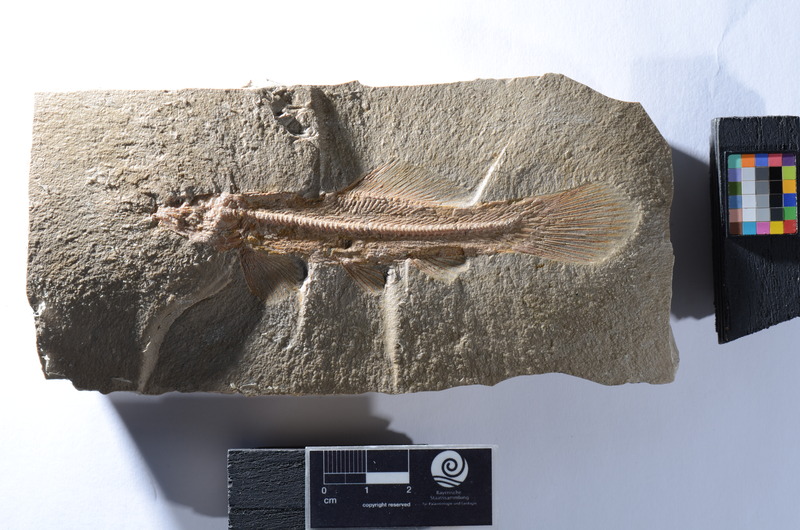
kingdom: Animalia
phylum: Chordata
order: Amiiformes
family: Amiidae
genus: Solnhofenamia
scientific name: Solnhofenamia elongata
